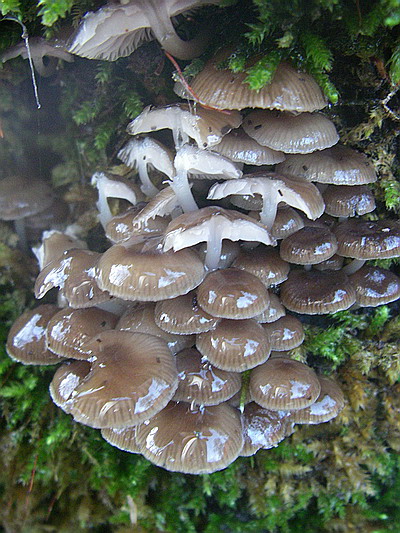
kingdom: Fungi
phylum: Basidiomycota
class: Agaricomycetes
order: Agaricales
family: Mycenaceae
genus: Mycena
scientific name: Mycena tintinnabulum
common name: vinter-huesvamp
